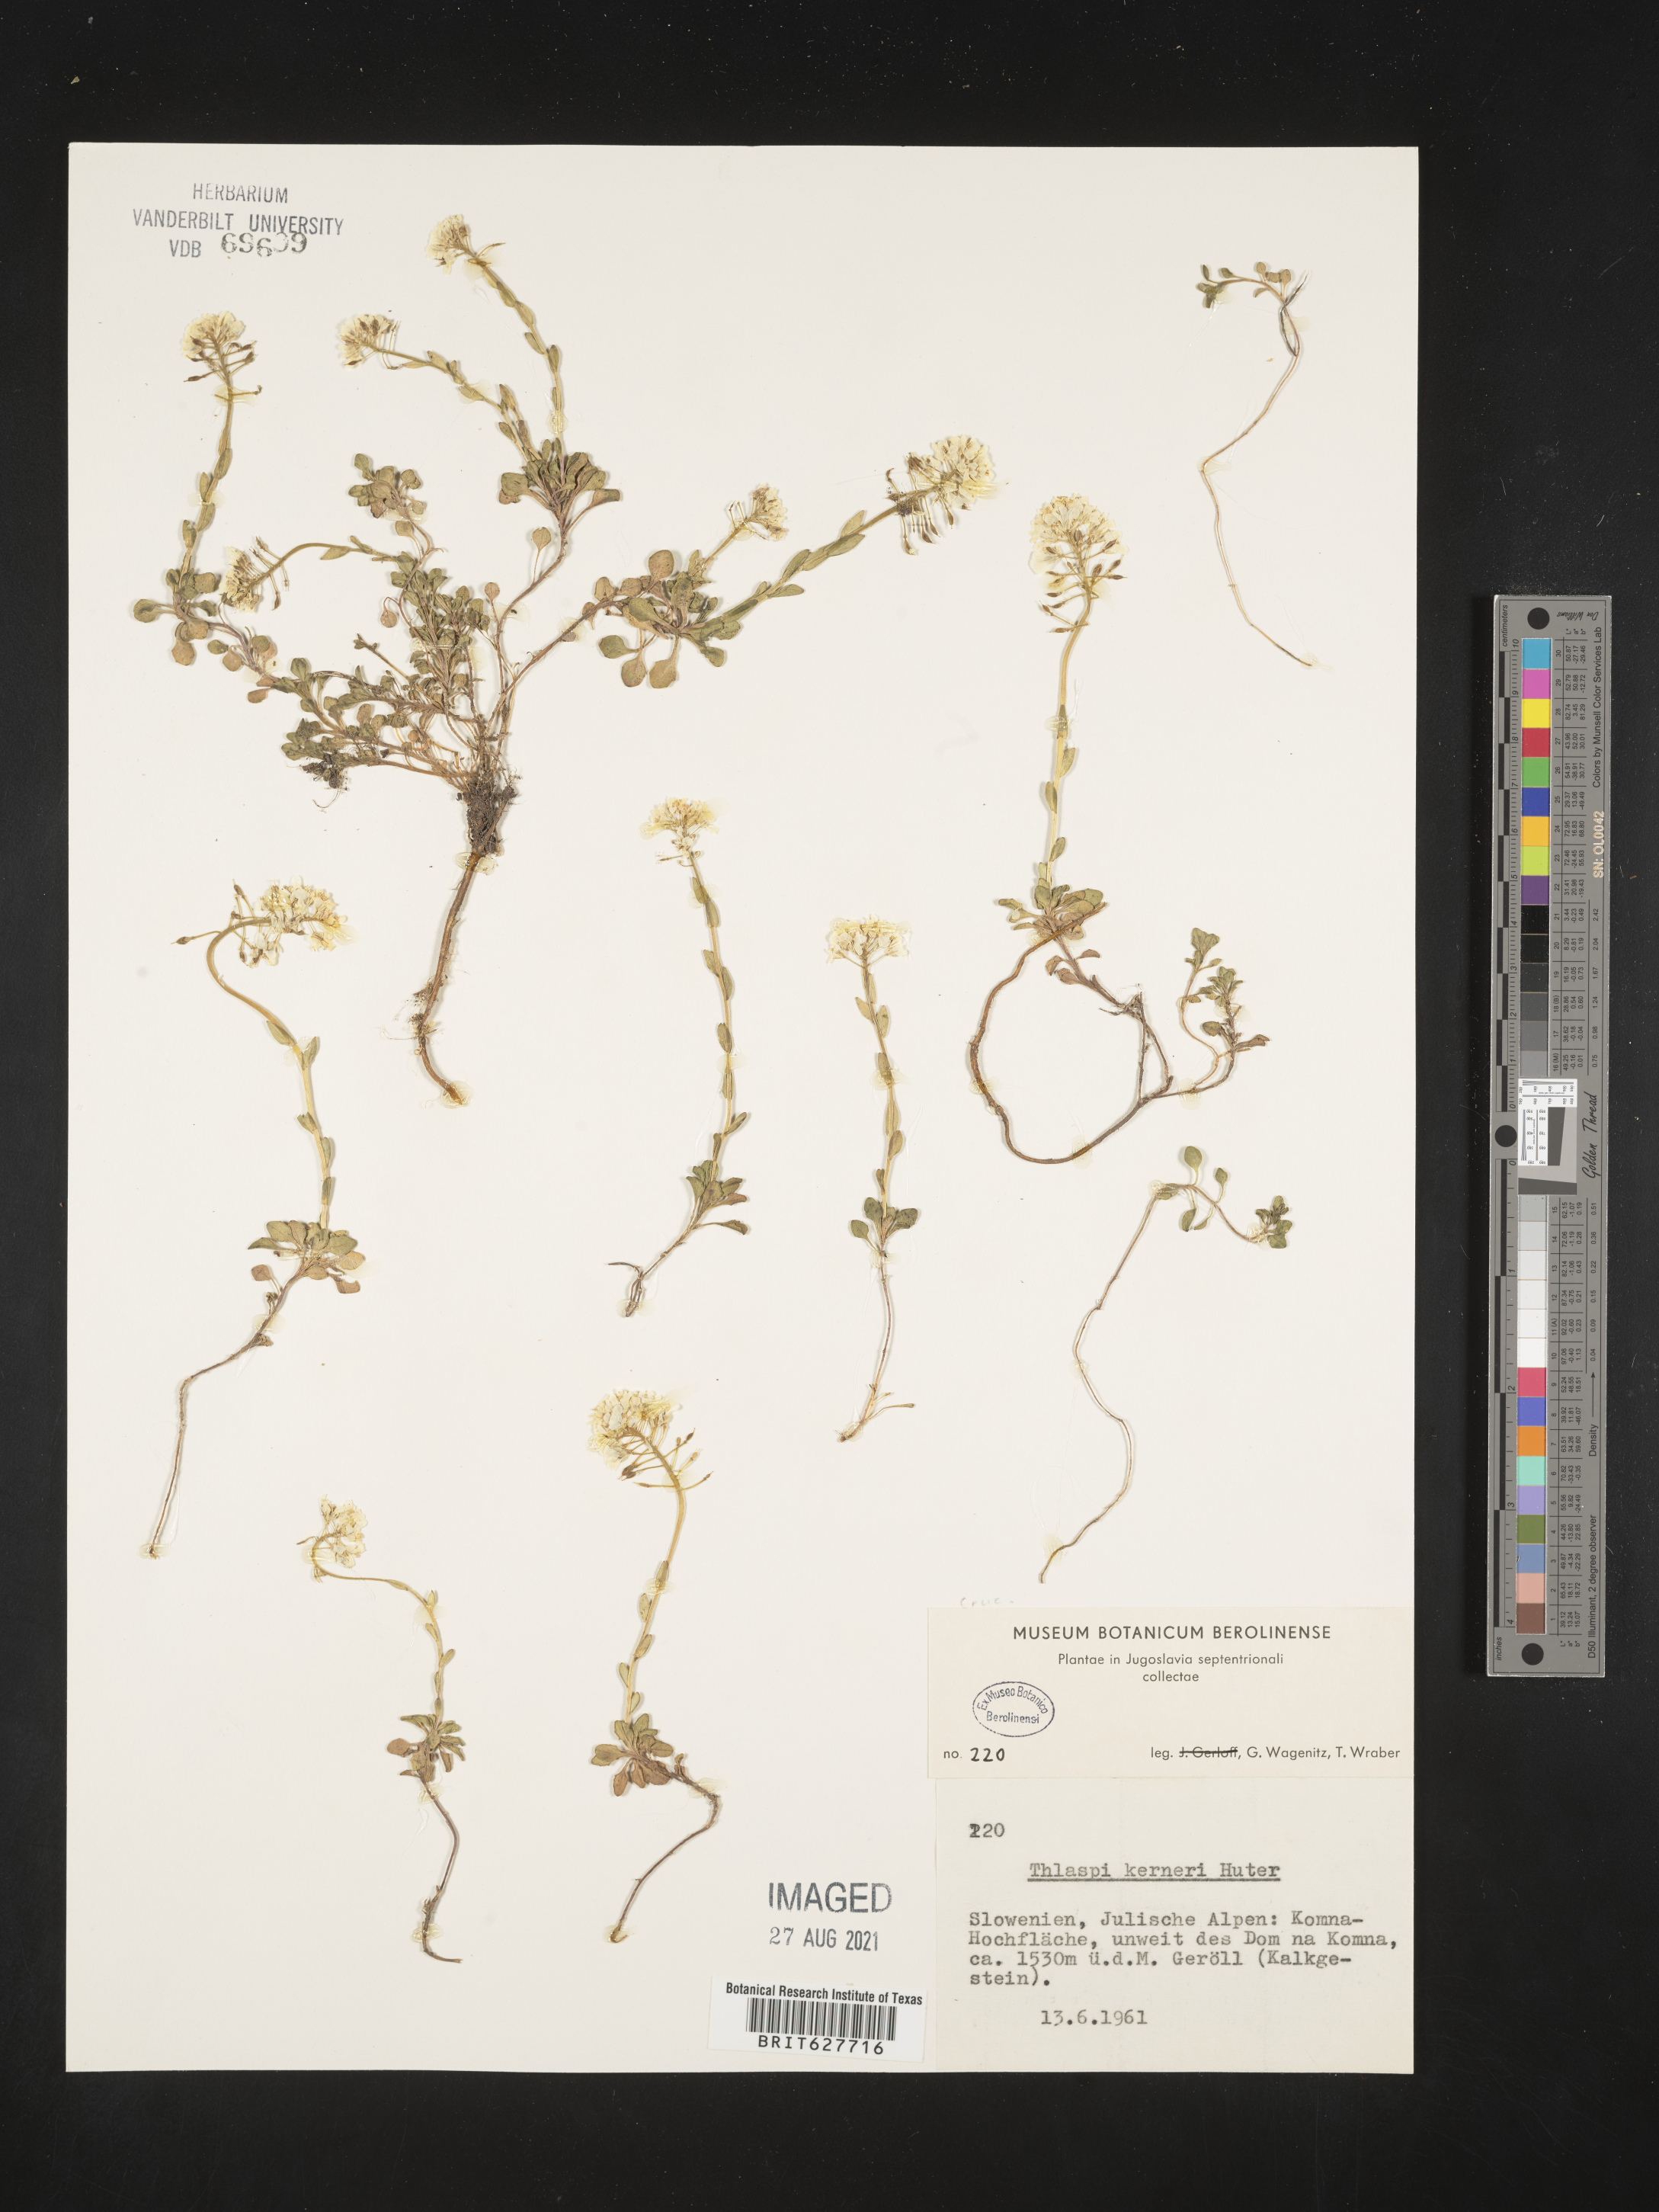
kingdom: Plantae
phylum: Tracheophyta
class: Magnoliopsida
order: Brassicales
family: Brassicaceae
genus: Noccaea
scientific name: Noccaea minima
